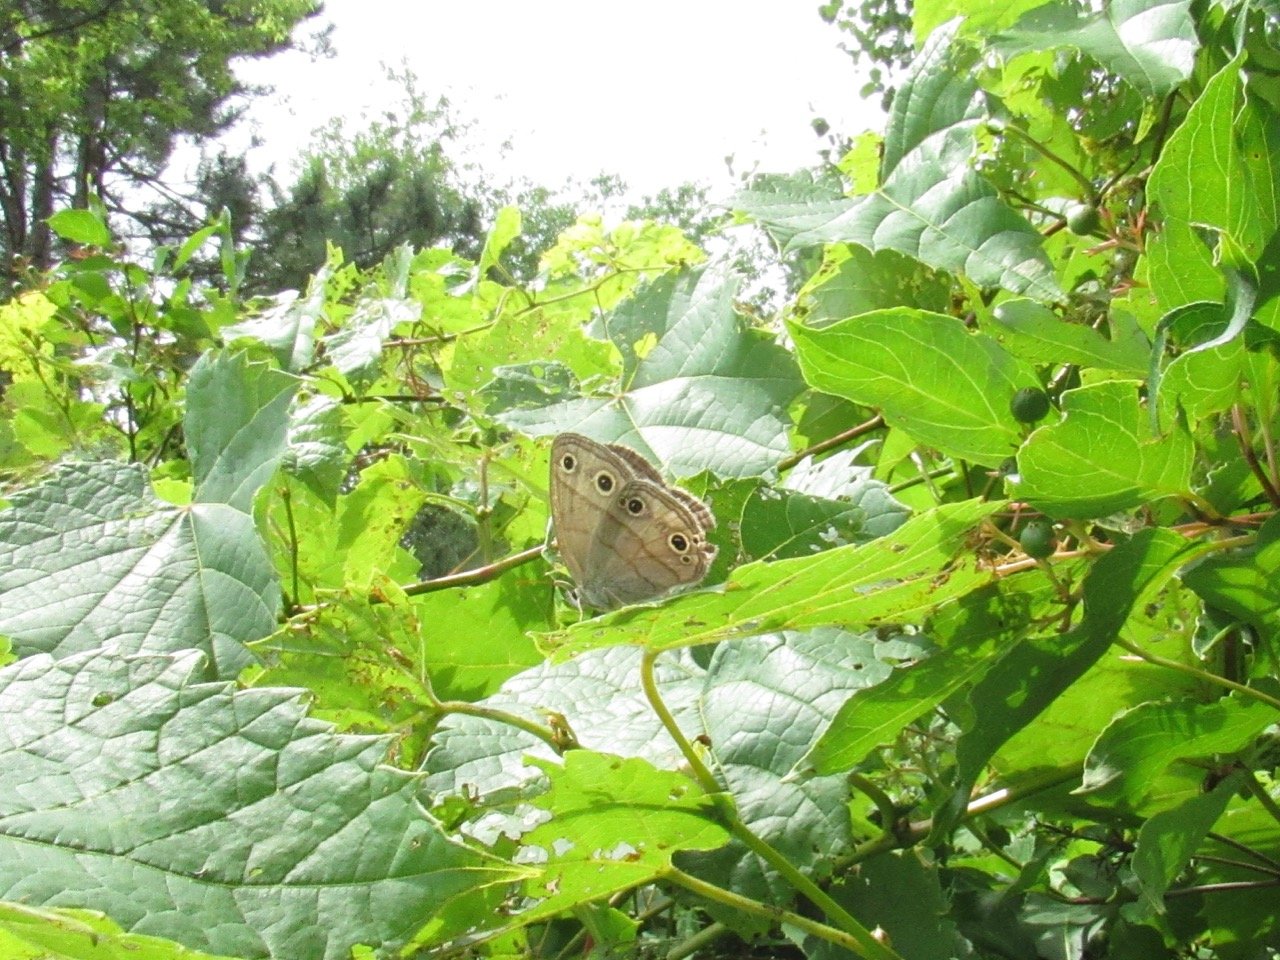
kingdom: Animalia
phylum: Arthropoda
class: Insecta
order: Lepidoptera
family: Nymphalidae
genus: Euptychia
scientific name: Euptychia cymela
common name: Little Wood Satyr
